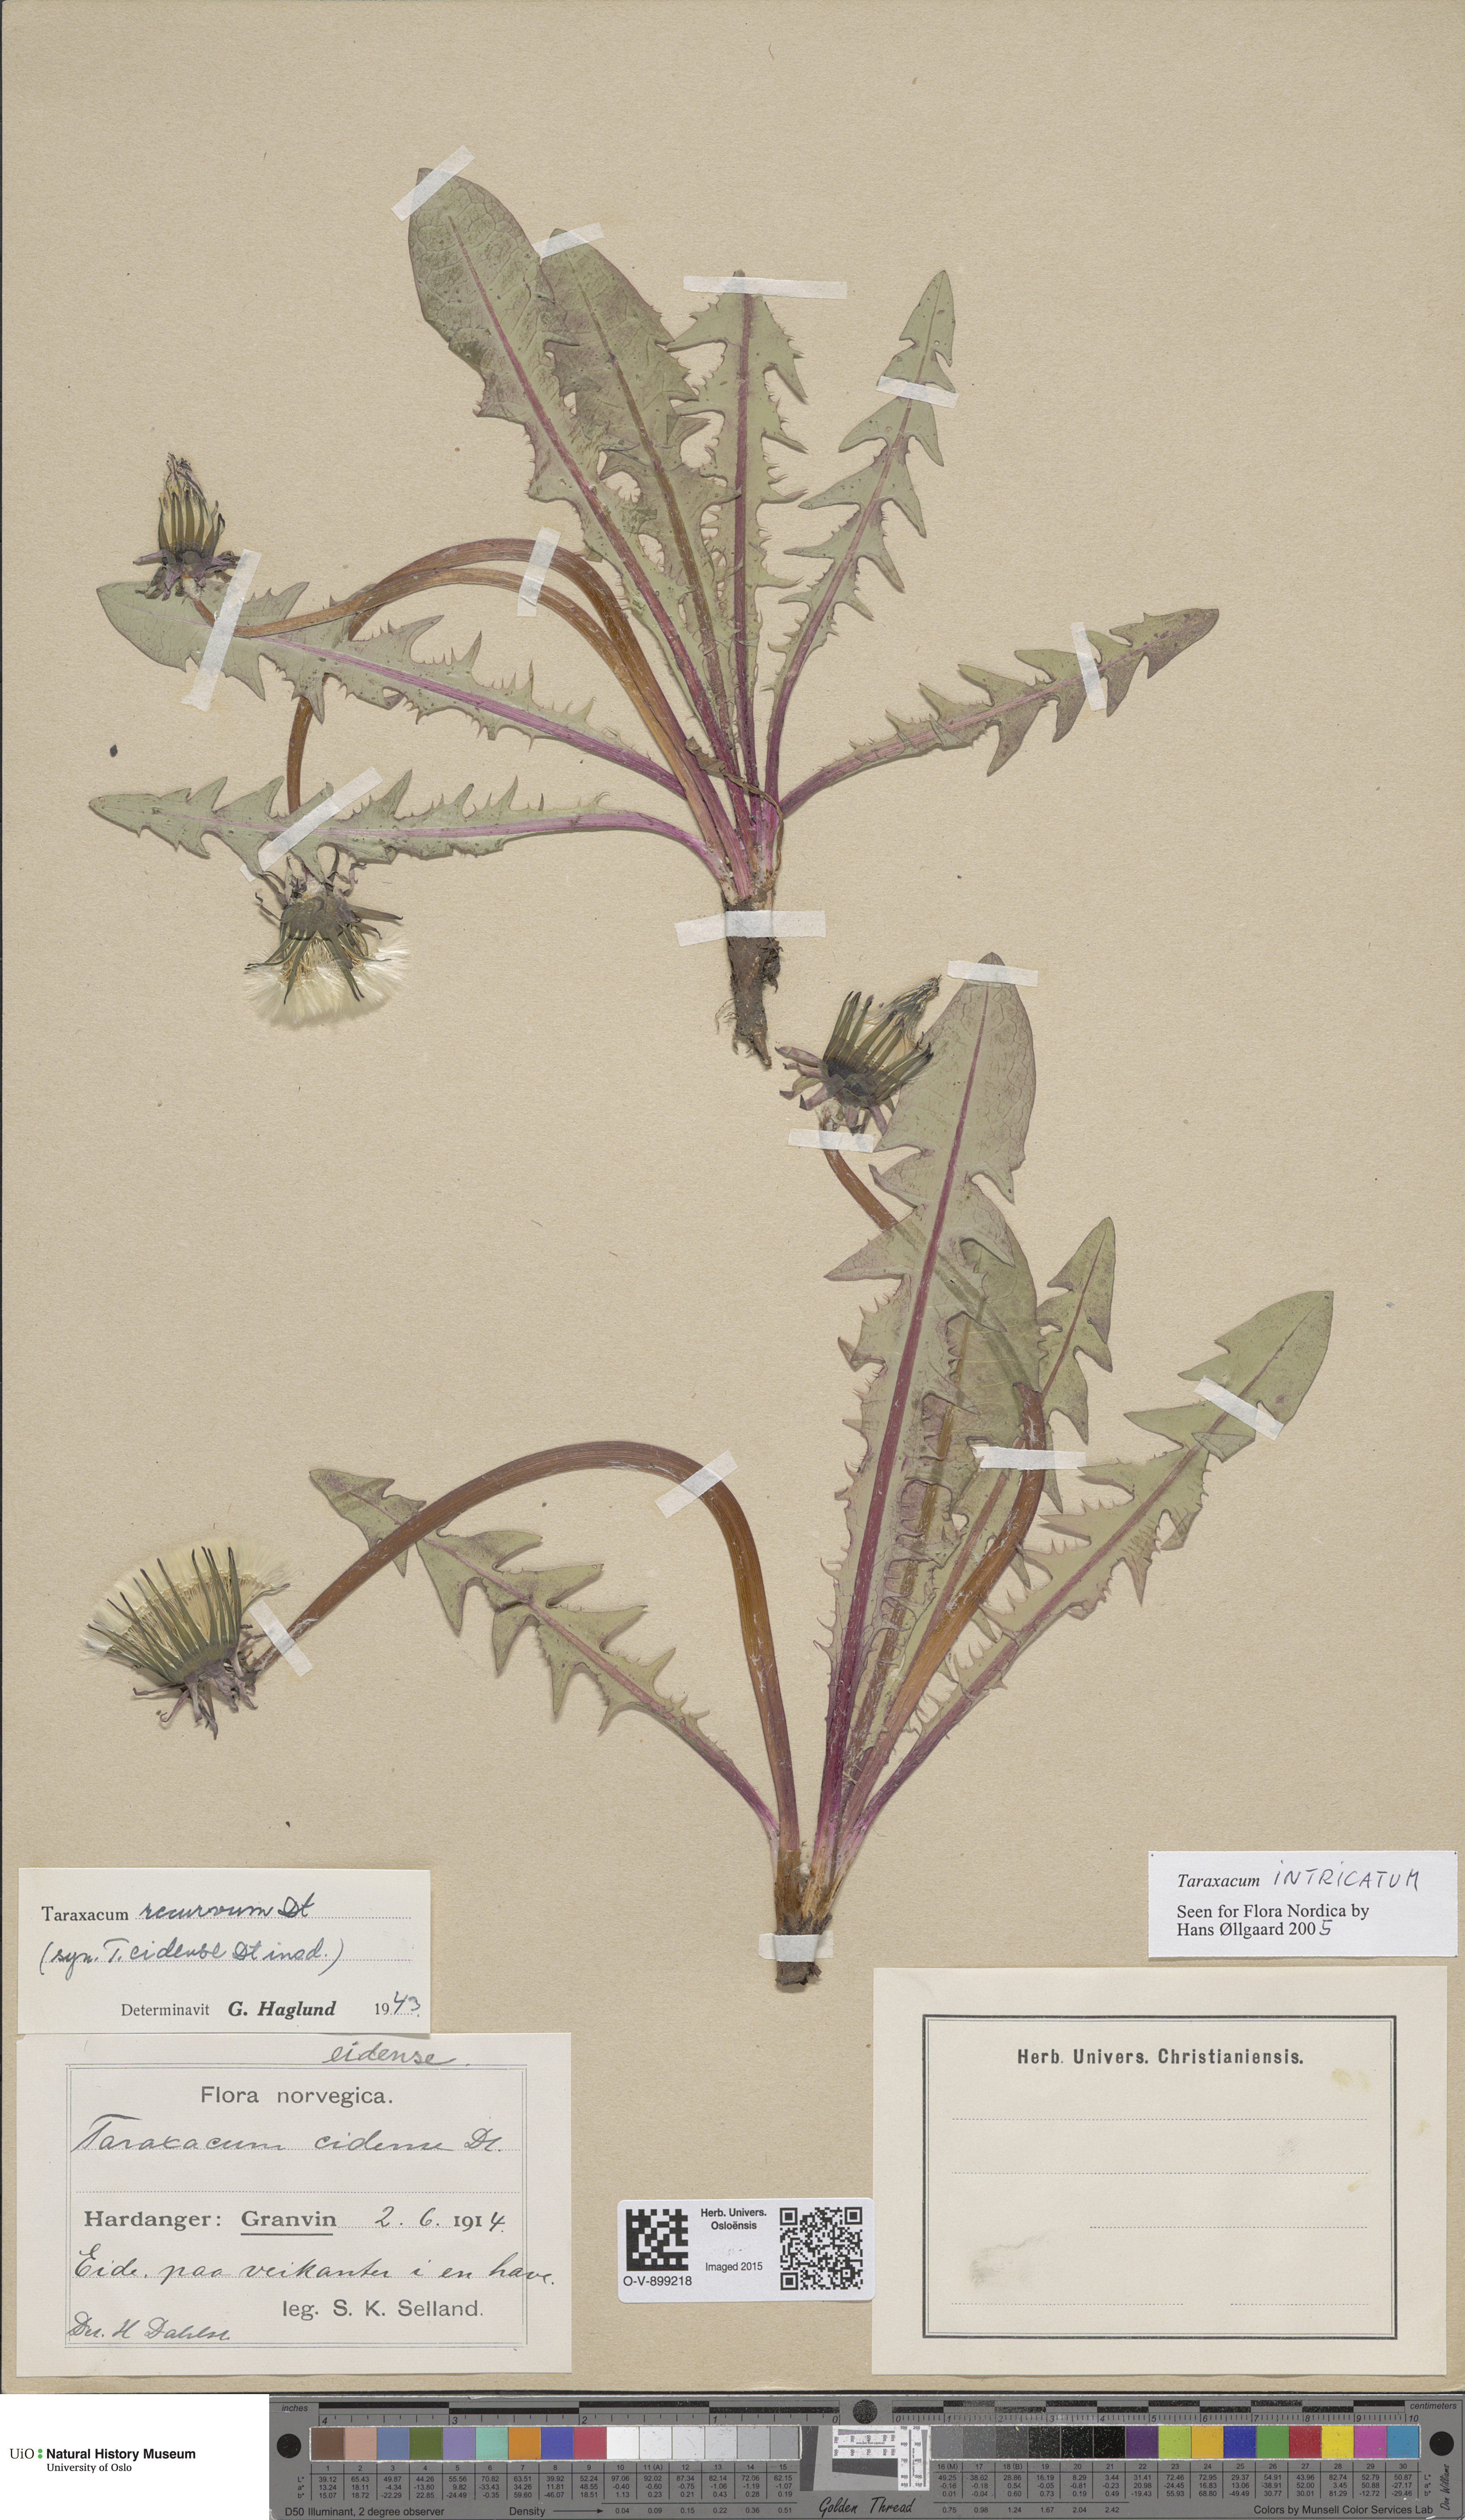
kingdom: Plantae
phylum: Tracheophyta
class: Magnoliopsida
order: Asterales
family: Asteraceae
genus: Taraxacum
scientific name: Taraxacum recurvum
